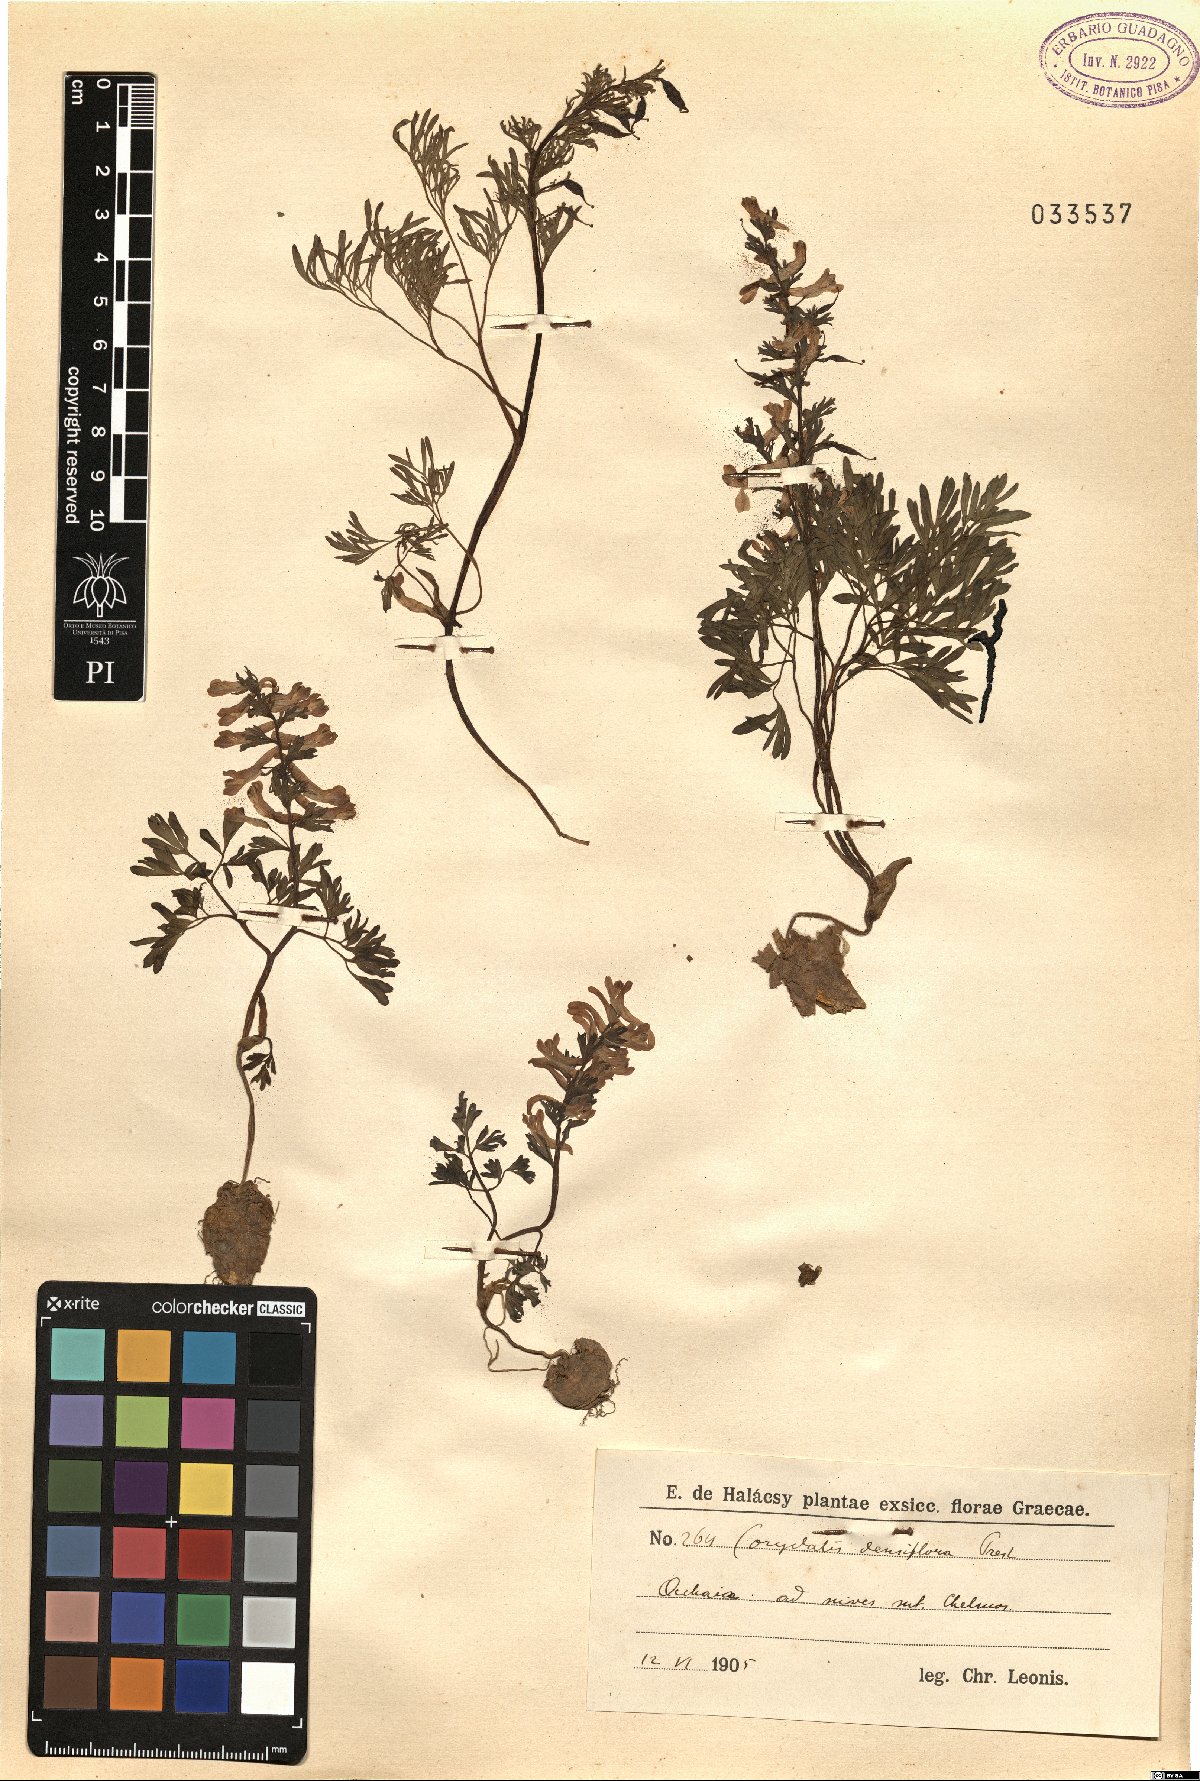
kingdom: Plantae
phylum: Tracheophyta
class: Magnoliopsida
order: Ranunculales
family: Papaveraceae
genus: Corydalis
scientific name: Corydalis densiflora
